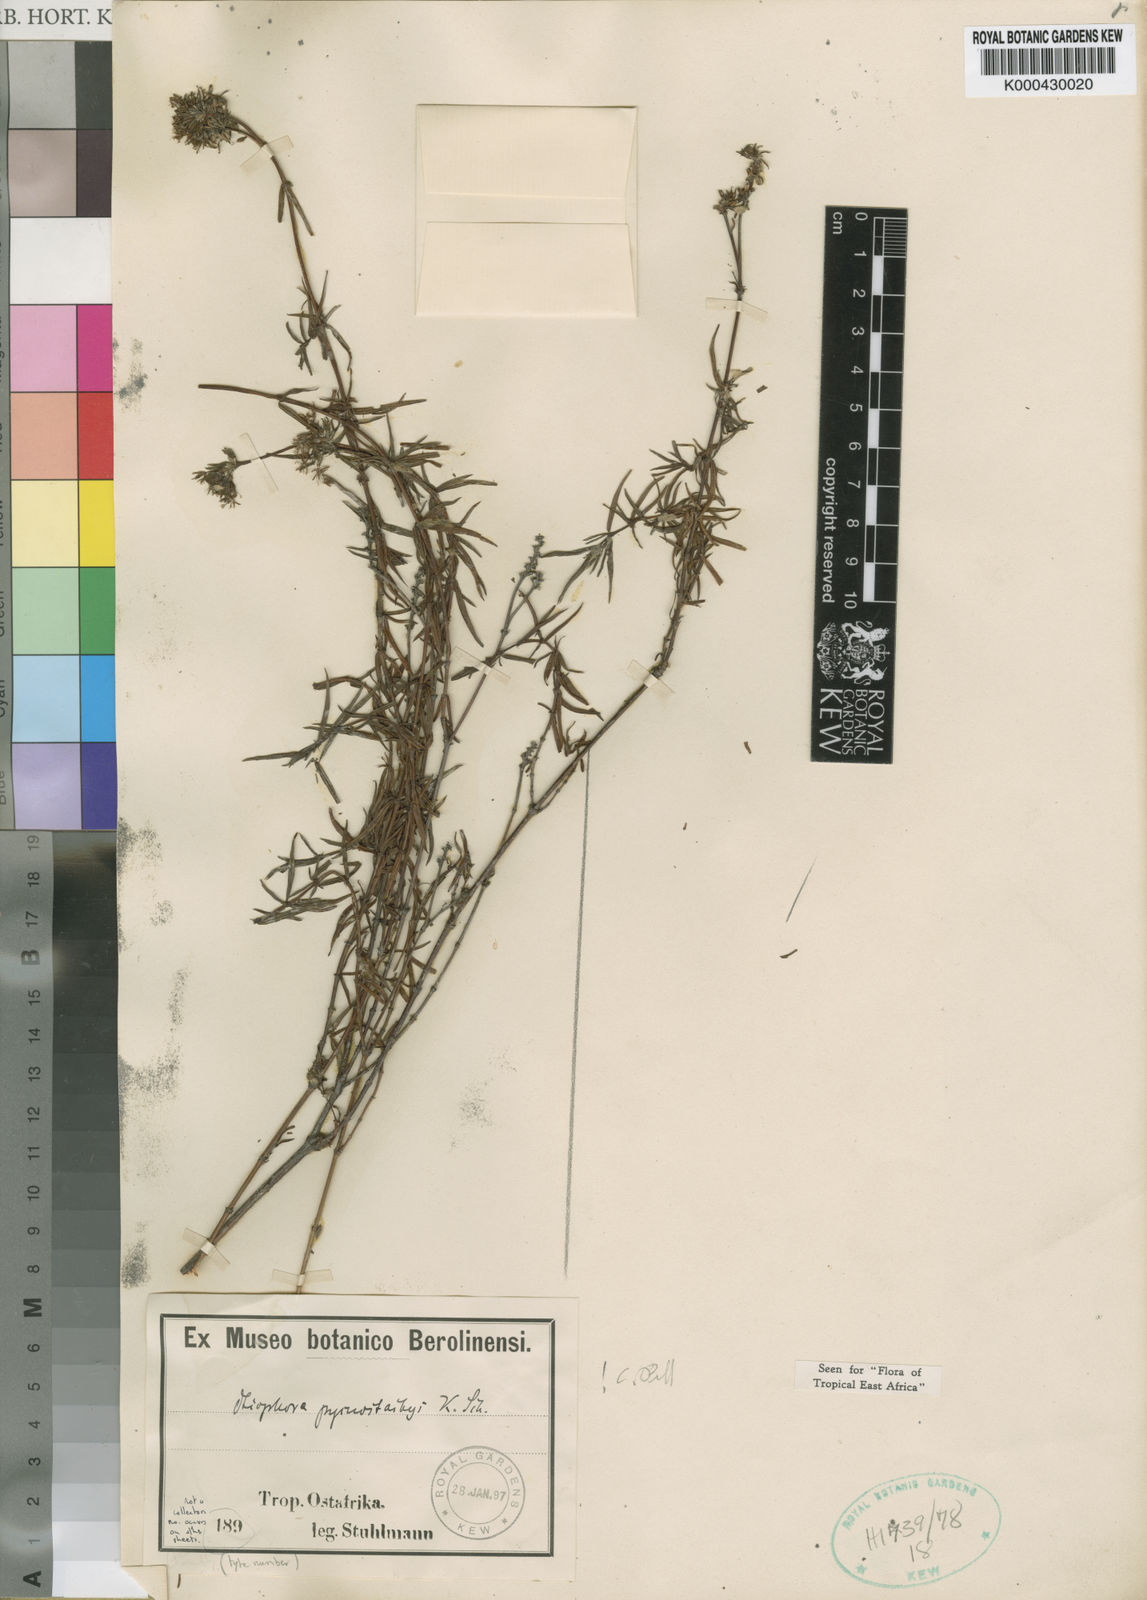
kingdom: Plantae
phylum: Tracheophyta
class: Magnoliopsida
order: Gentianales
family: Rubiaceae
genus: Otiophora
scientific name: Otiophora pycnostachys
